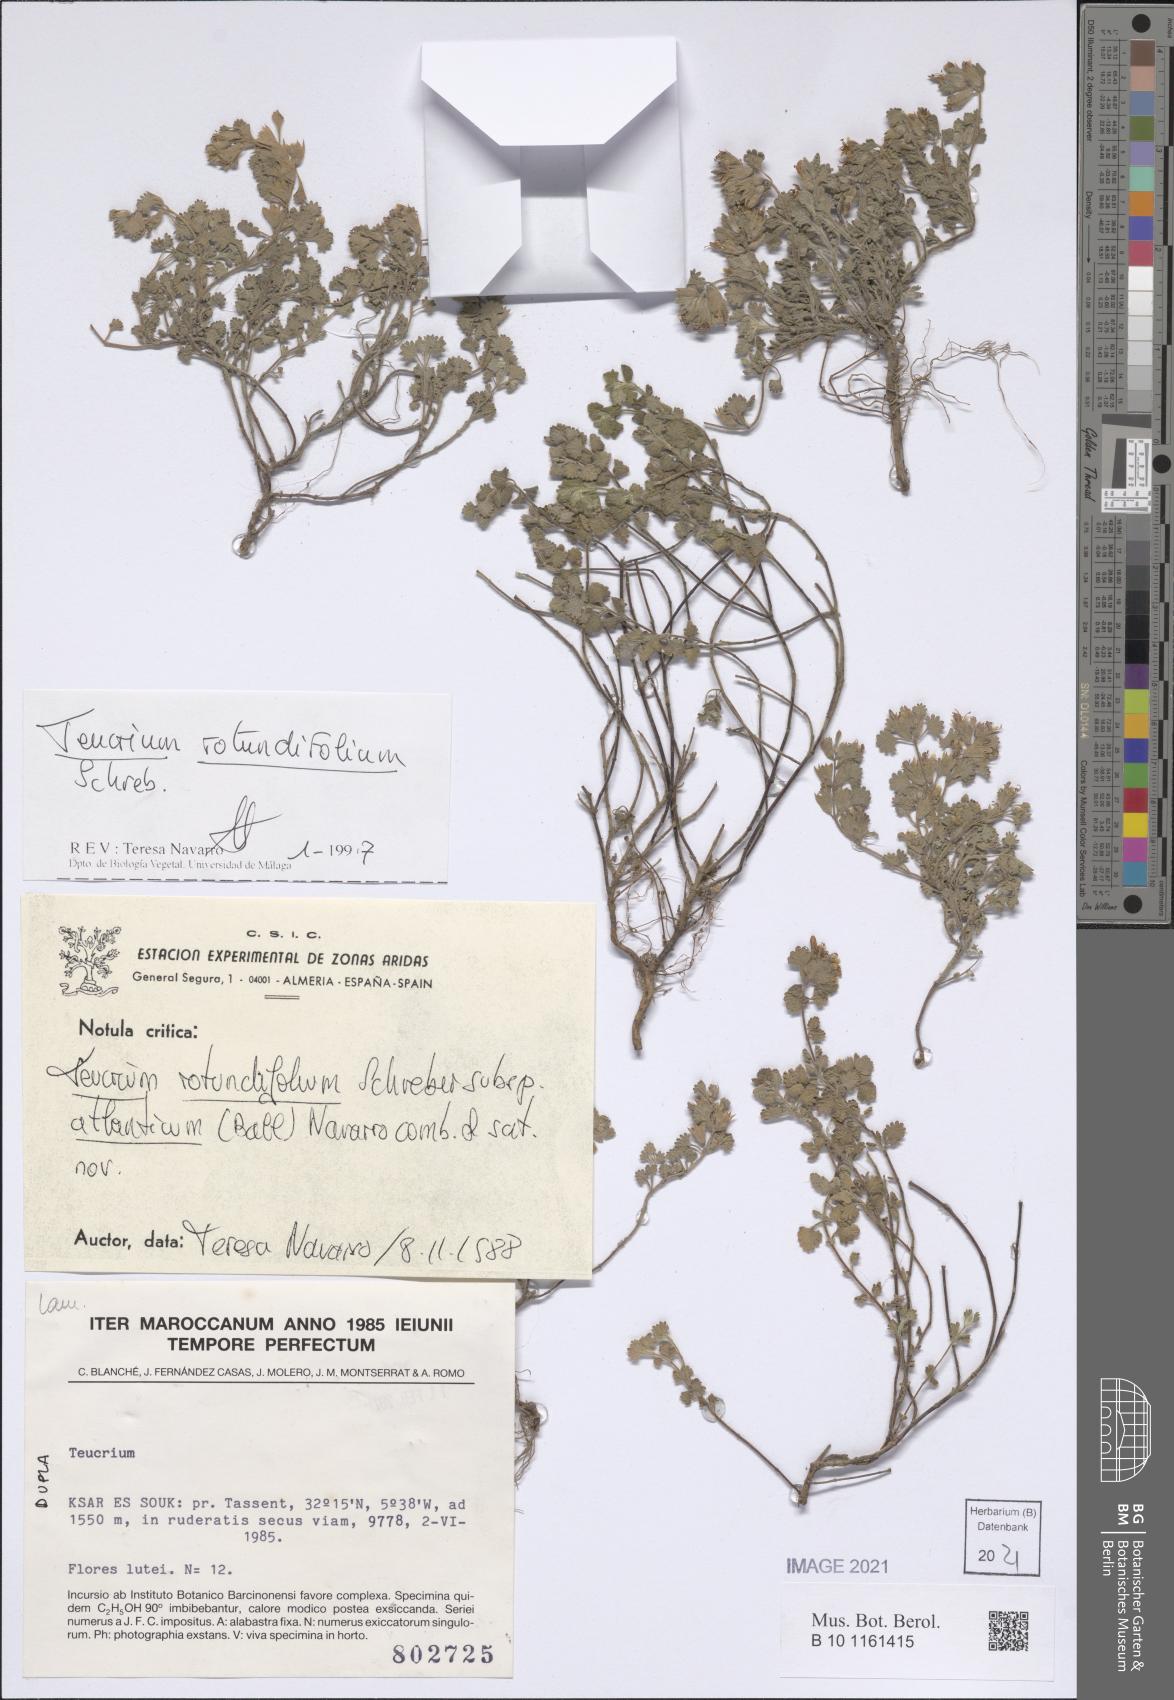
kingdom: Plantae
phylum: Tracheophyta
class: Magnoliopsida
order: Lamiales
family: Lamiaceae
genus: Teucrium
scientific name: Teucrium rotundifolium
